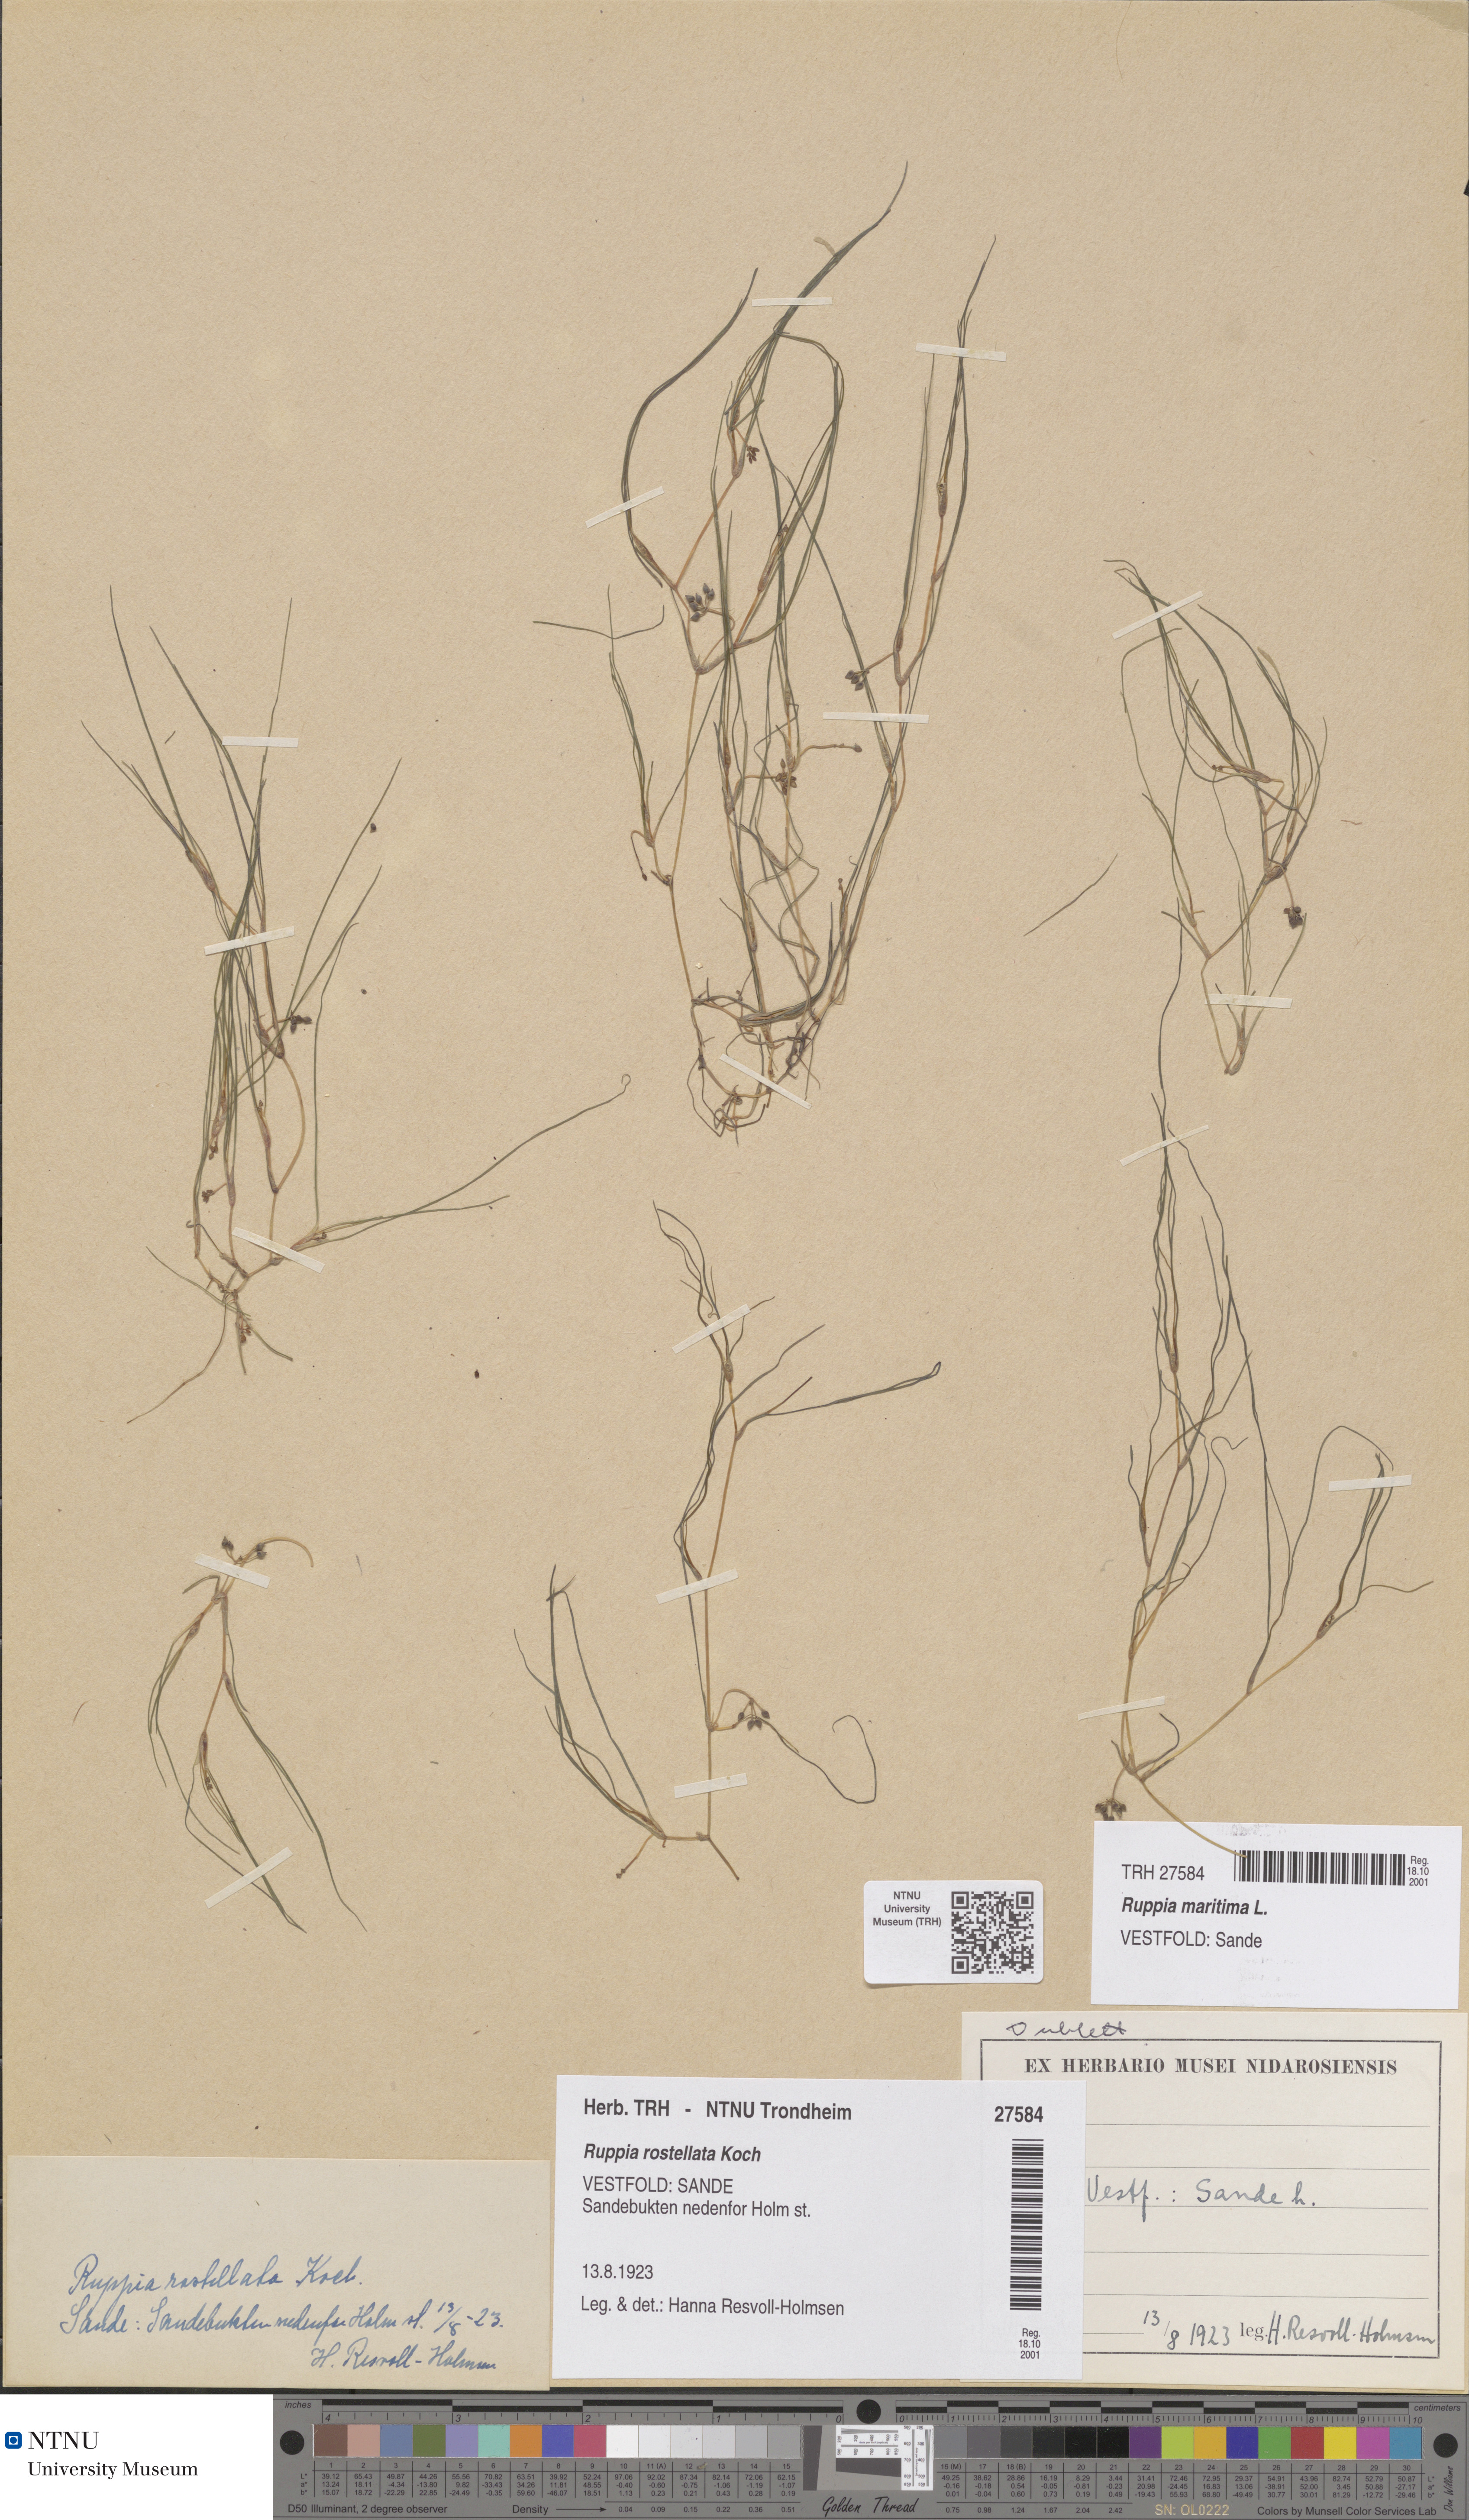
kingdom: Plantae
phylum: Tracheophyta
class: Liliopsida
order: Alismatales
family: Ruppiaceae
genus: Ruppia
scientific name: Ruppia maritima
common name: Beaked tasselweed
